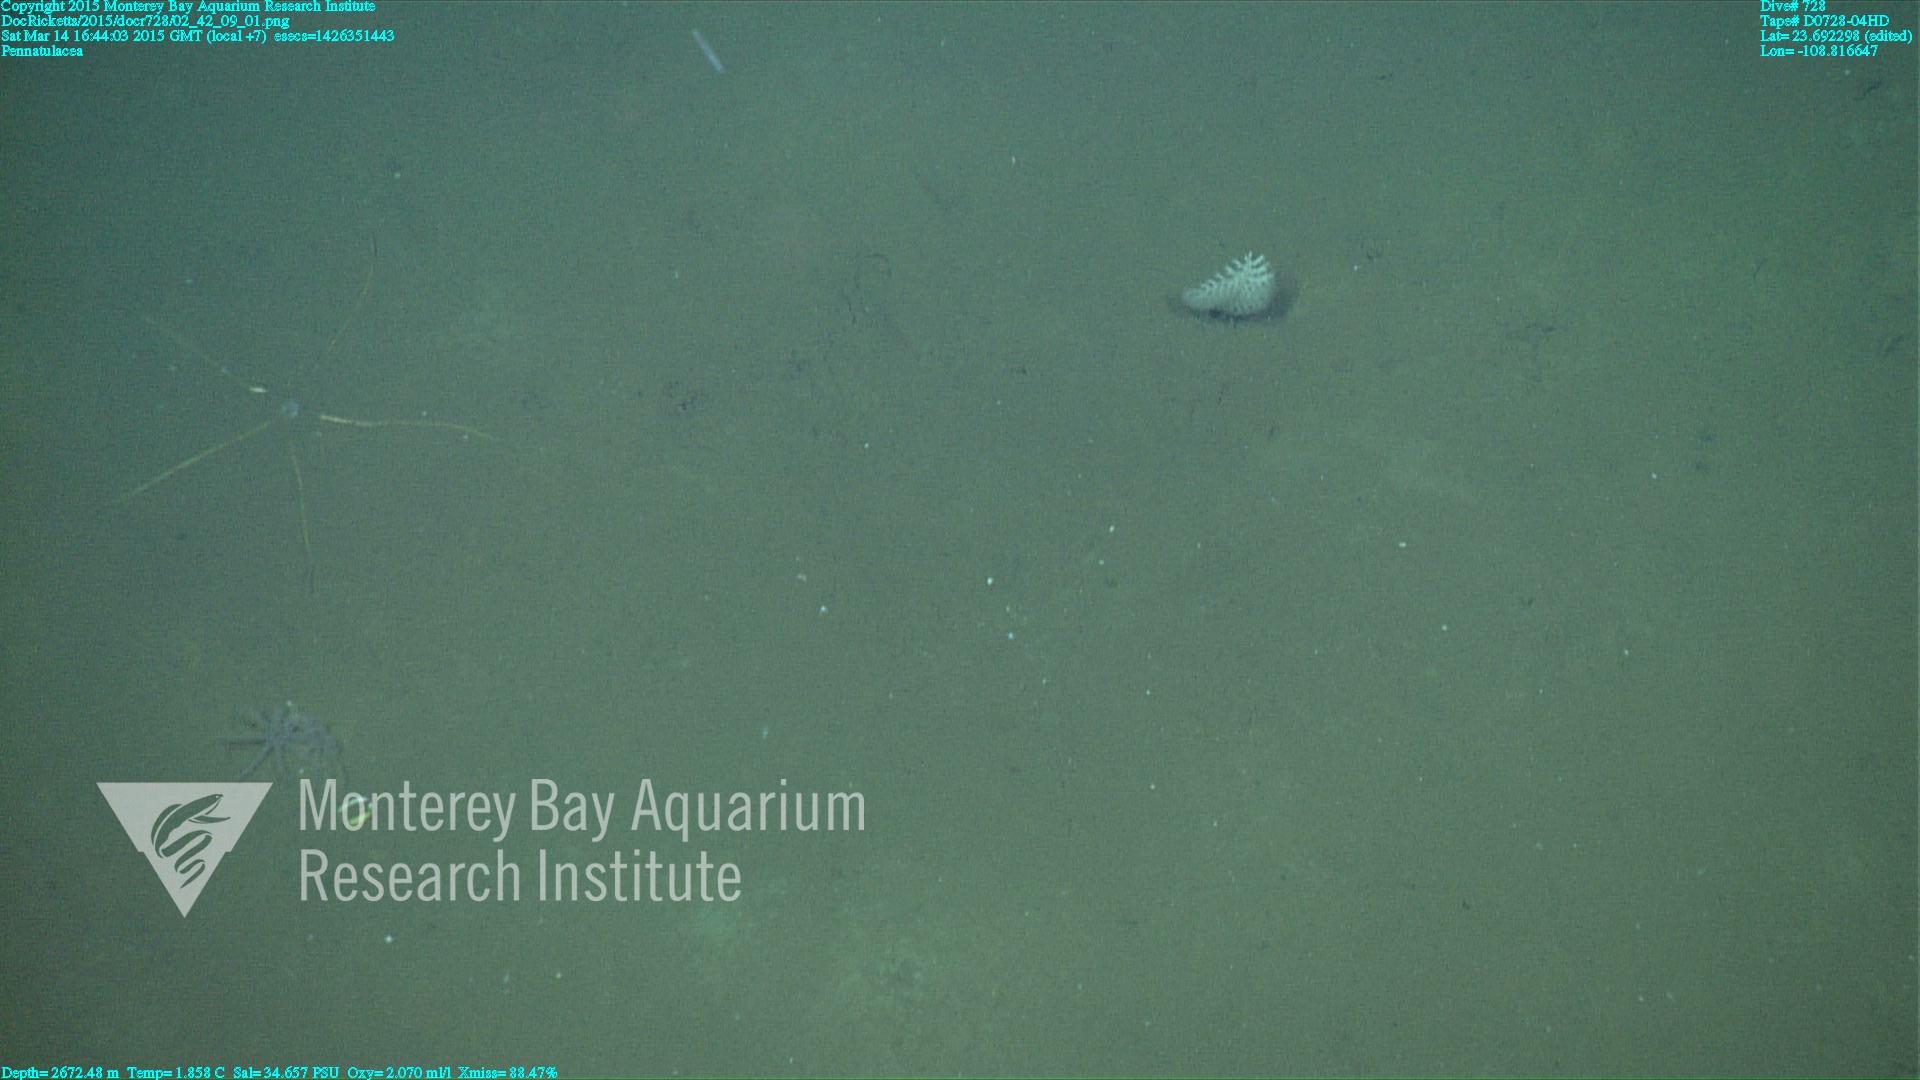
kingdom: Animalia
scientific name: Animalia
